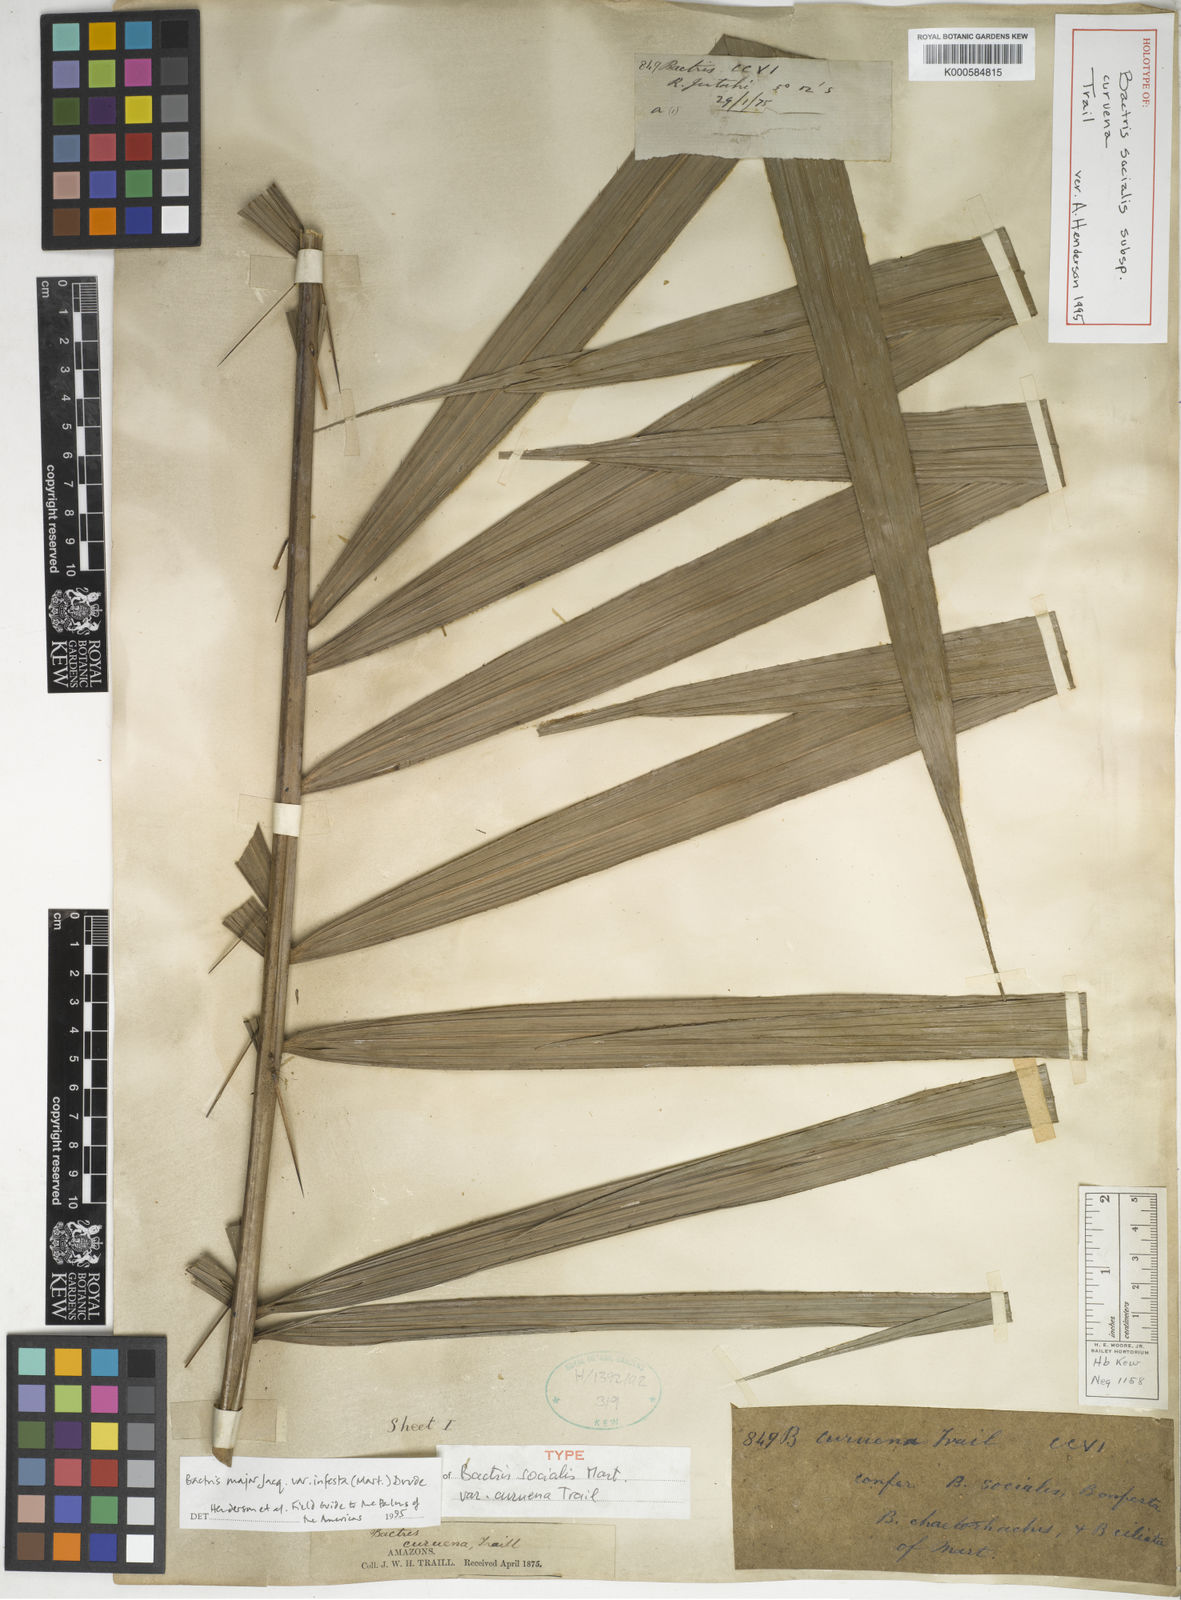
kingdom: Plantae
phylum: Tracheophyta
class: Liliopsida
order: Arecales
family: Arecaceae
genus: Bactris
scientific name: Bactris major
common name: Beach palm
